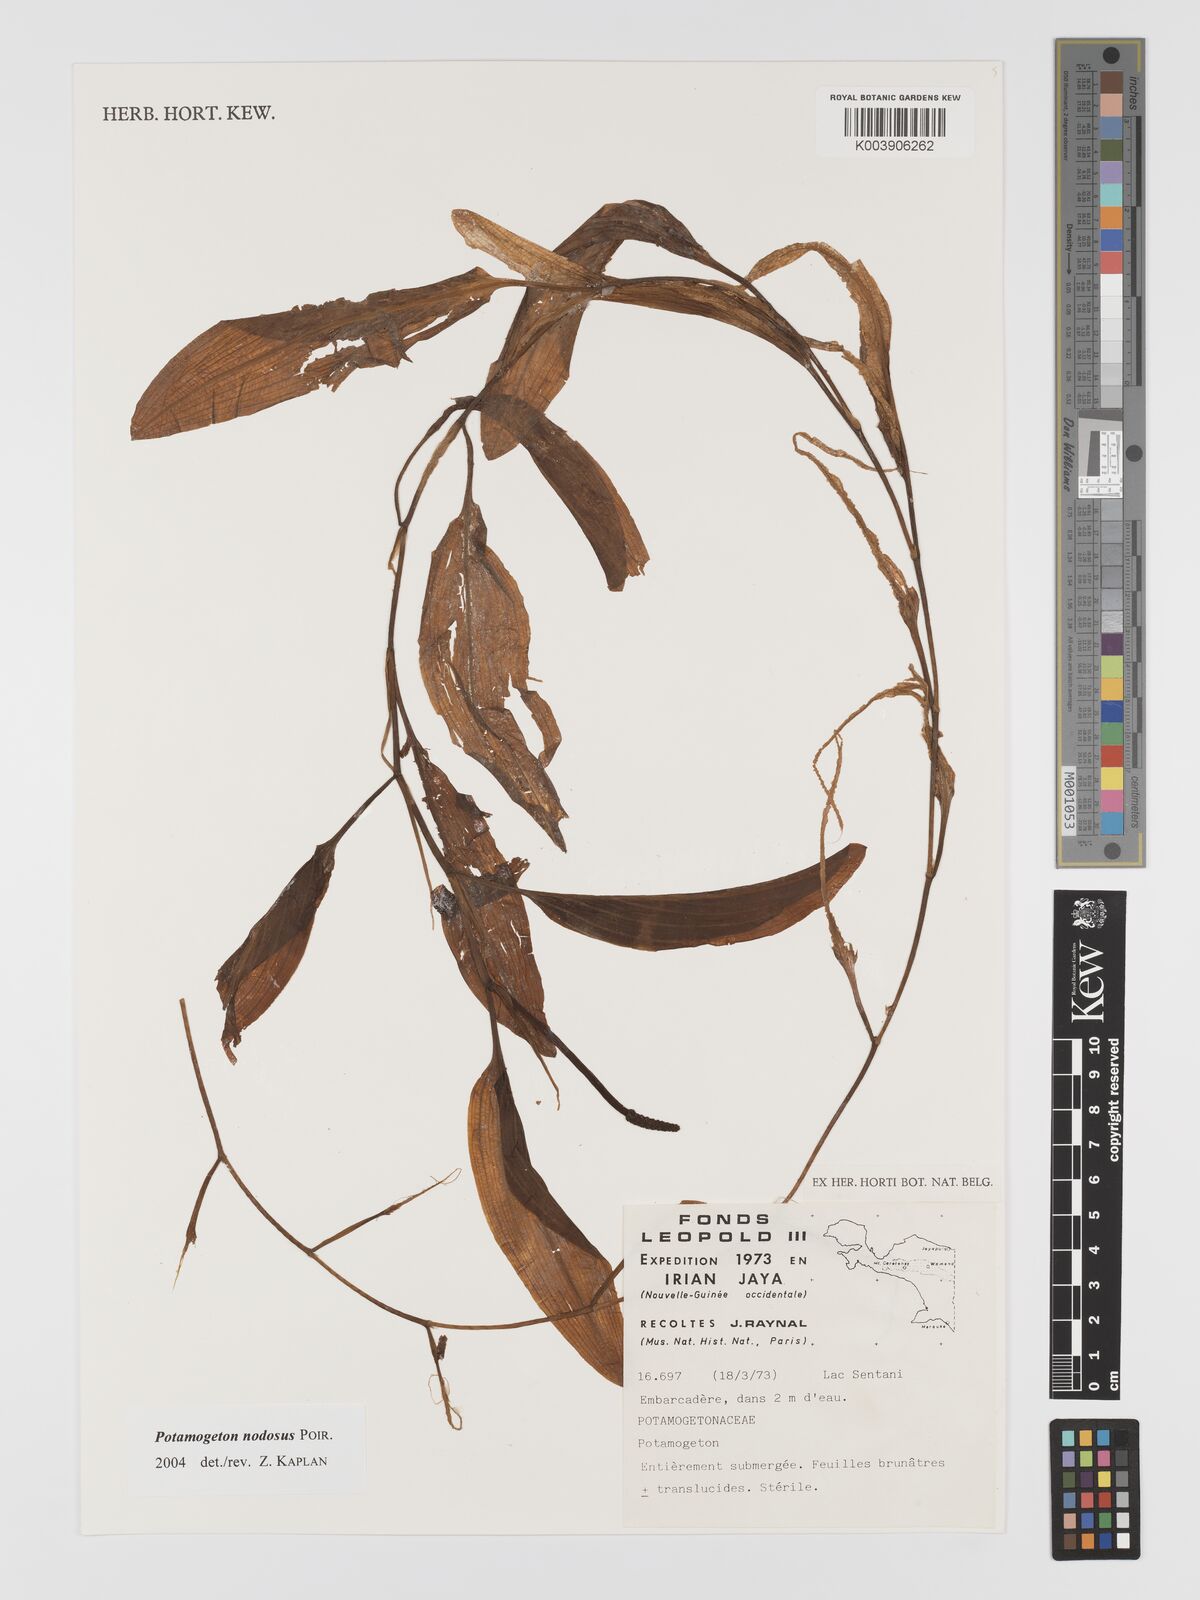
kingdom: Plantae
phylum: Tracheophyta
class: Liliopsida
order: Alismatales
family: Potamogetonaceae
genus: Potamogeton
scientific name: Potamogeton nodosus
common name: Loddon pondweed
